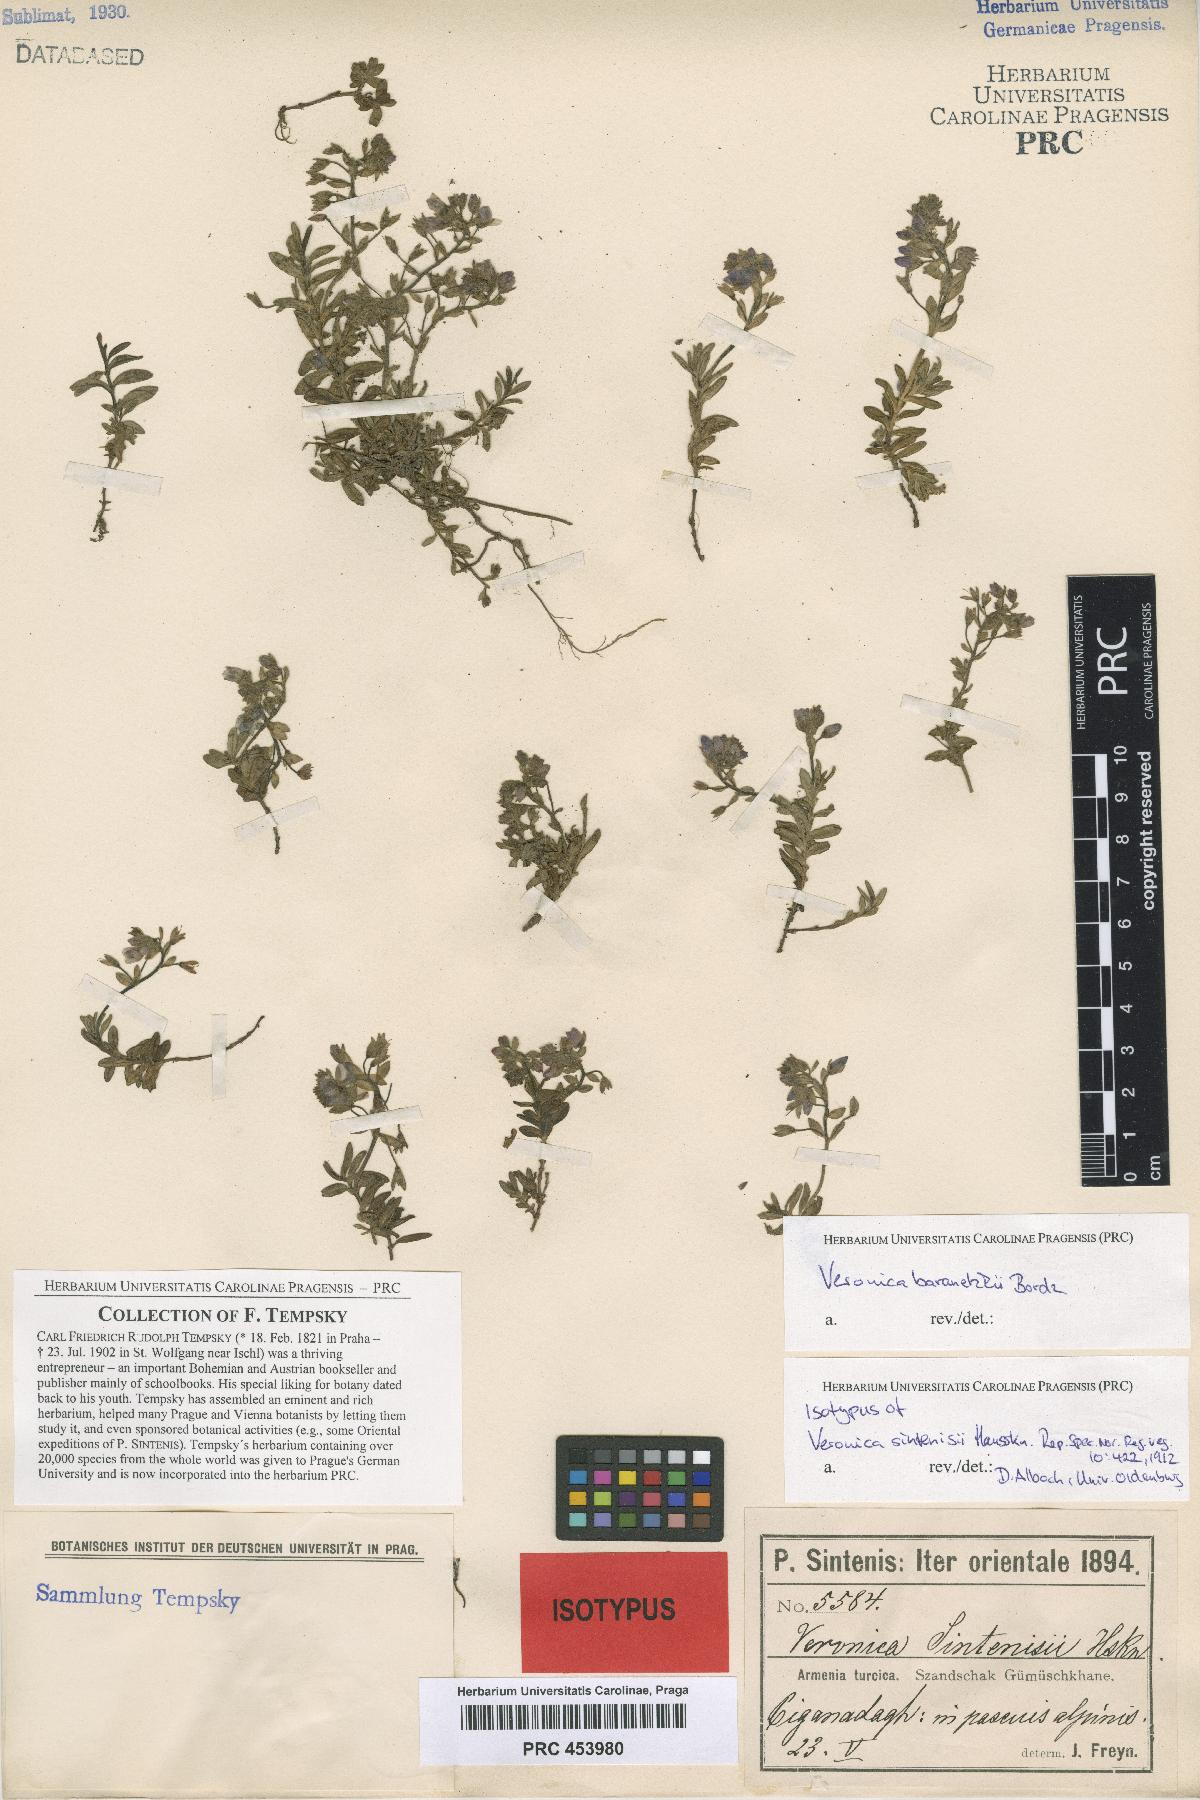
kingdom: Plantae
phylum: Tracheophyta
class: Magnoliopsida
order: Lamiales
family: Plantaginaceae
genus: Veronica
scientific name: Veronica denudata
